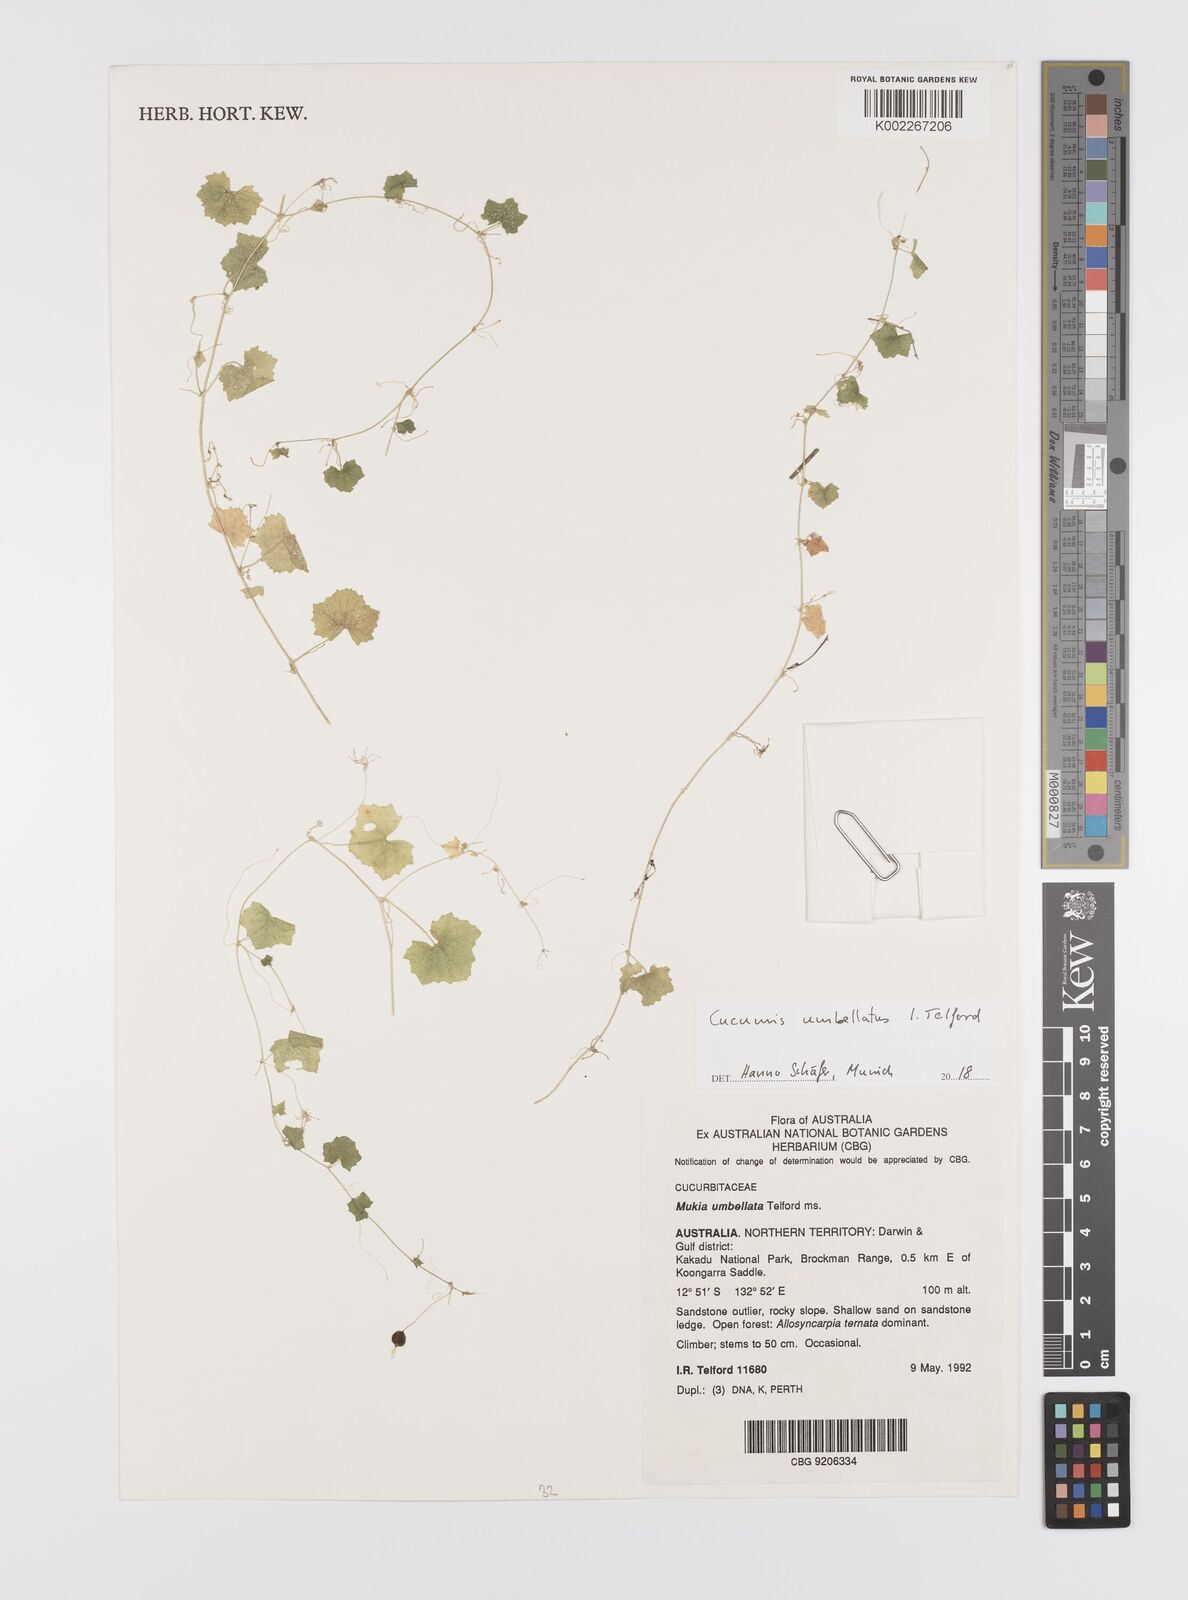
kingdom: Plantae
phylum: Tracheophyta
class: Magnoliopsida
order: Cucurbitales
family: Cucurbitaceae
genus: Cucumis
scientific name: Cucumis umbellatus
